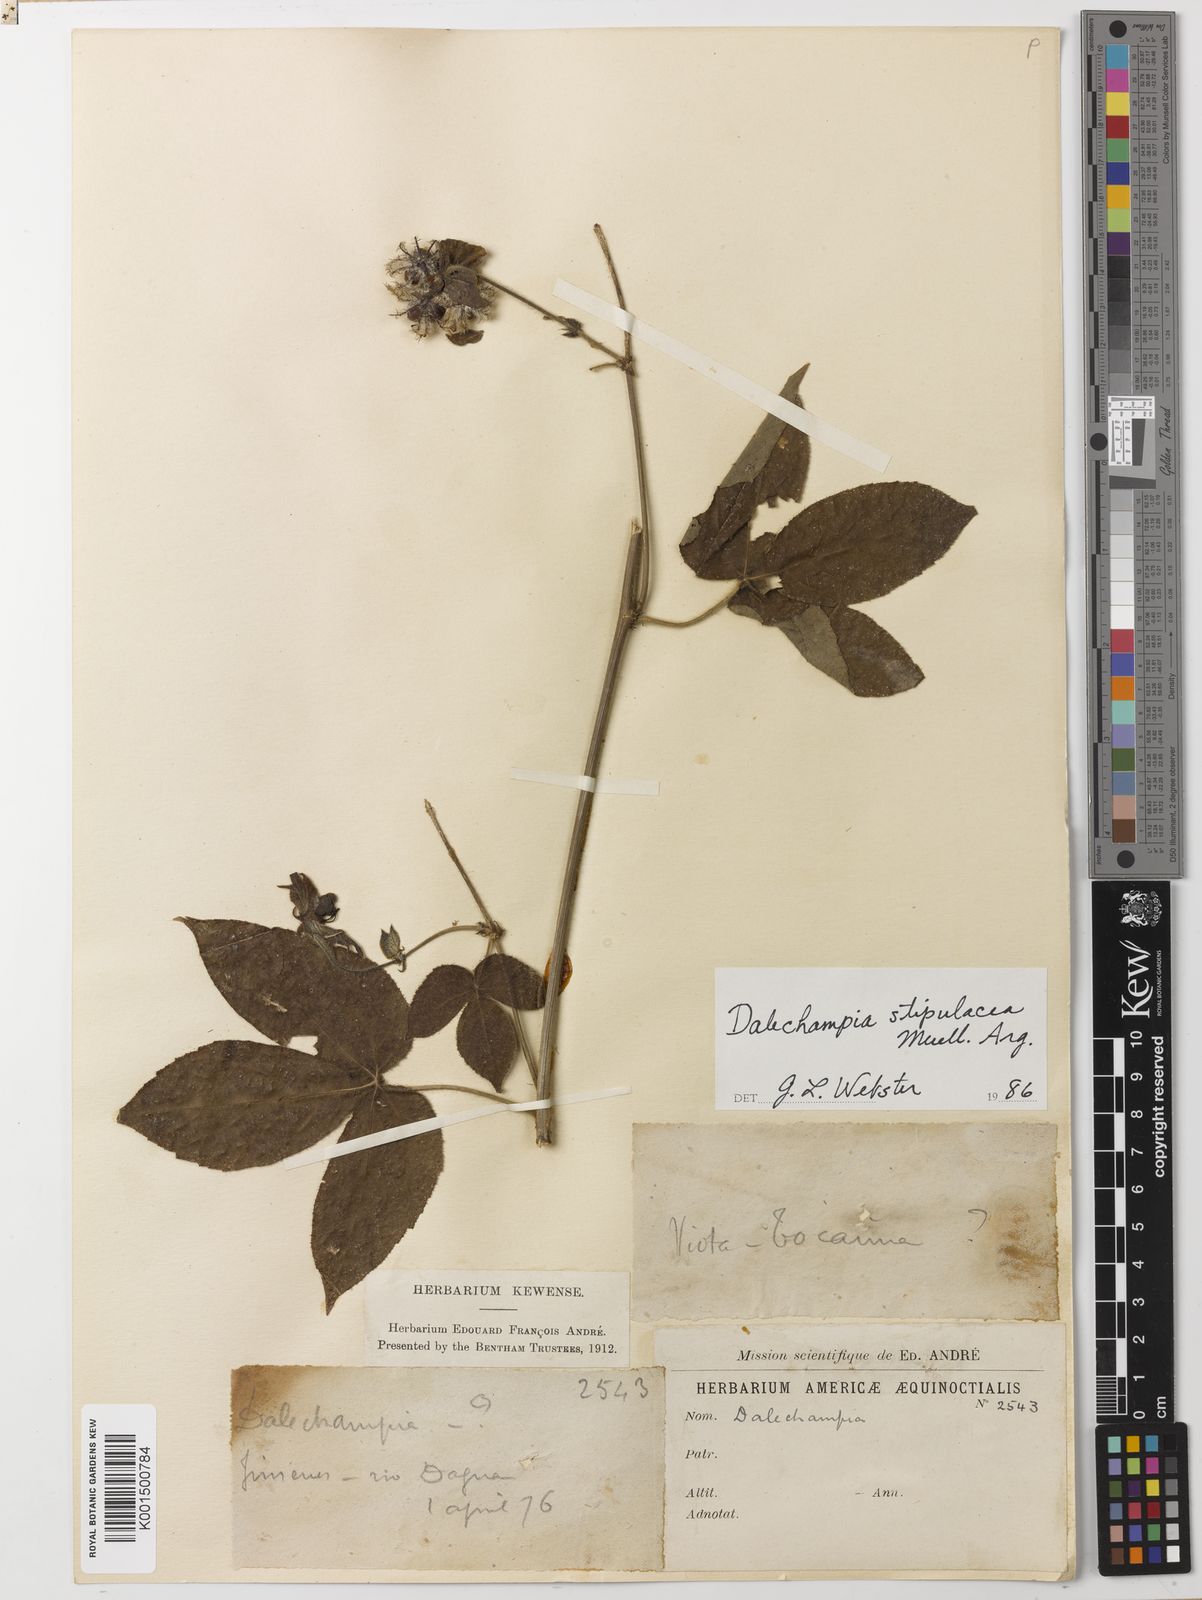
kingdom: Plantae
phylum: Tracheophyta
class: Magnoliopsida
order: Malpighiales
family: Euphorbiaceae
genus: Dalechampia
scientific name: Dalechampia stipulacea
